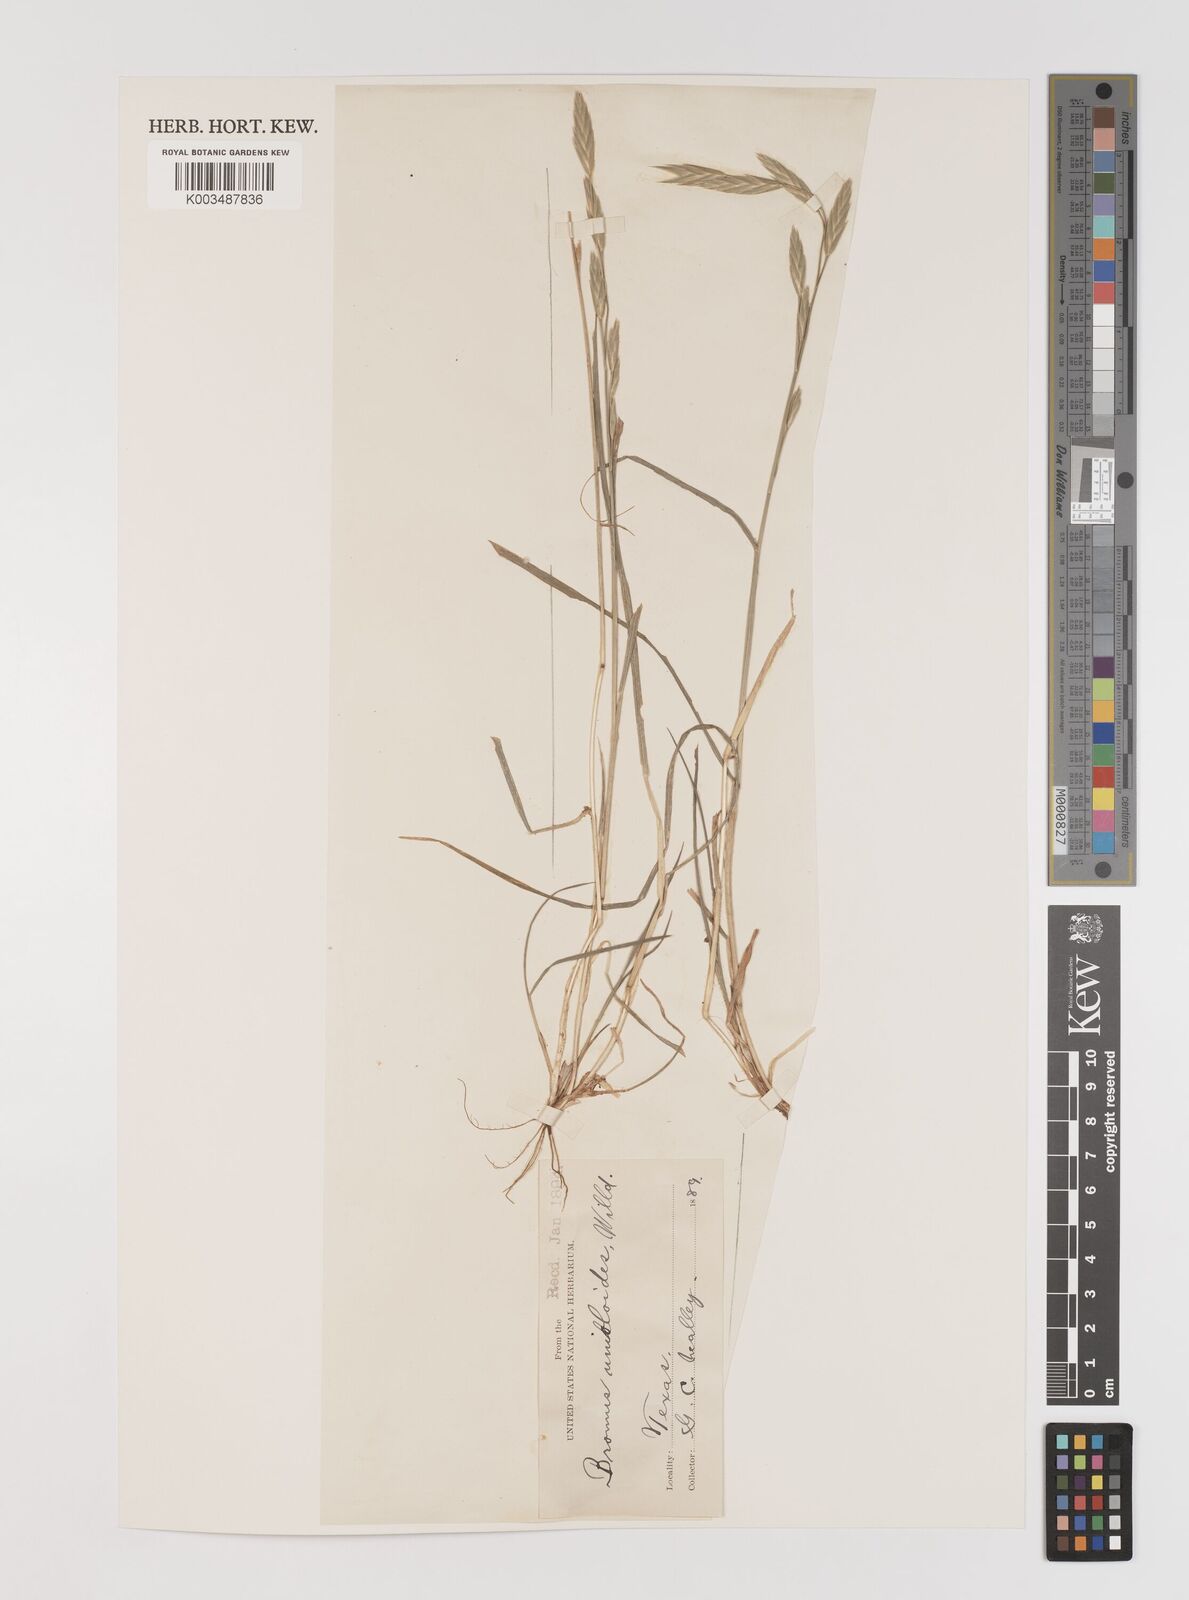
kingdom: Plantae
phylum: Tracheophyta
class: Liliopsida
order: Poales
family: Poaceae
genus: Bromus
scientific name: Bromus catharticus
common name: Rescuegrass
